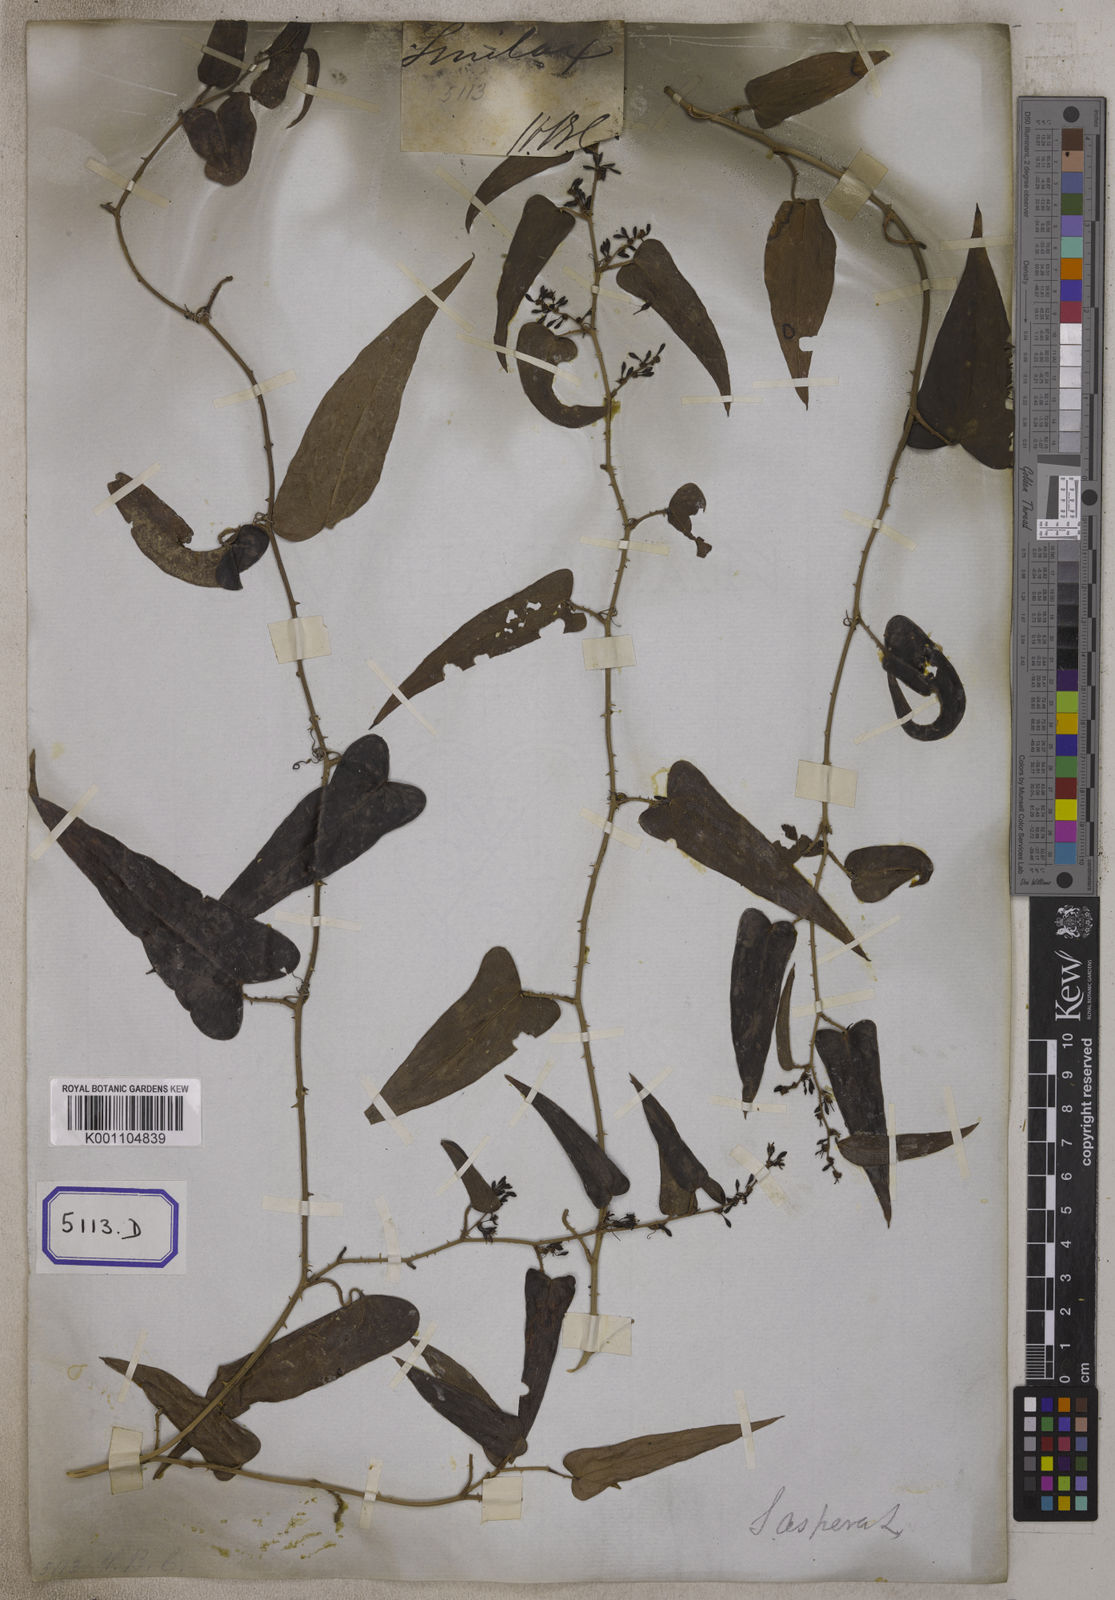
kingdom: Plantae
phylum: Tracheophyta
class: Liliopsida
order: Liliales
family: Smilacaceae
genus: Smilax
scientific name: Smilax
